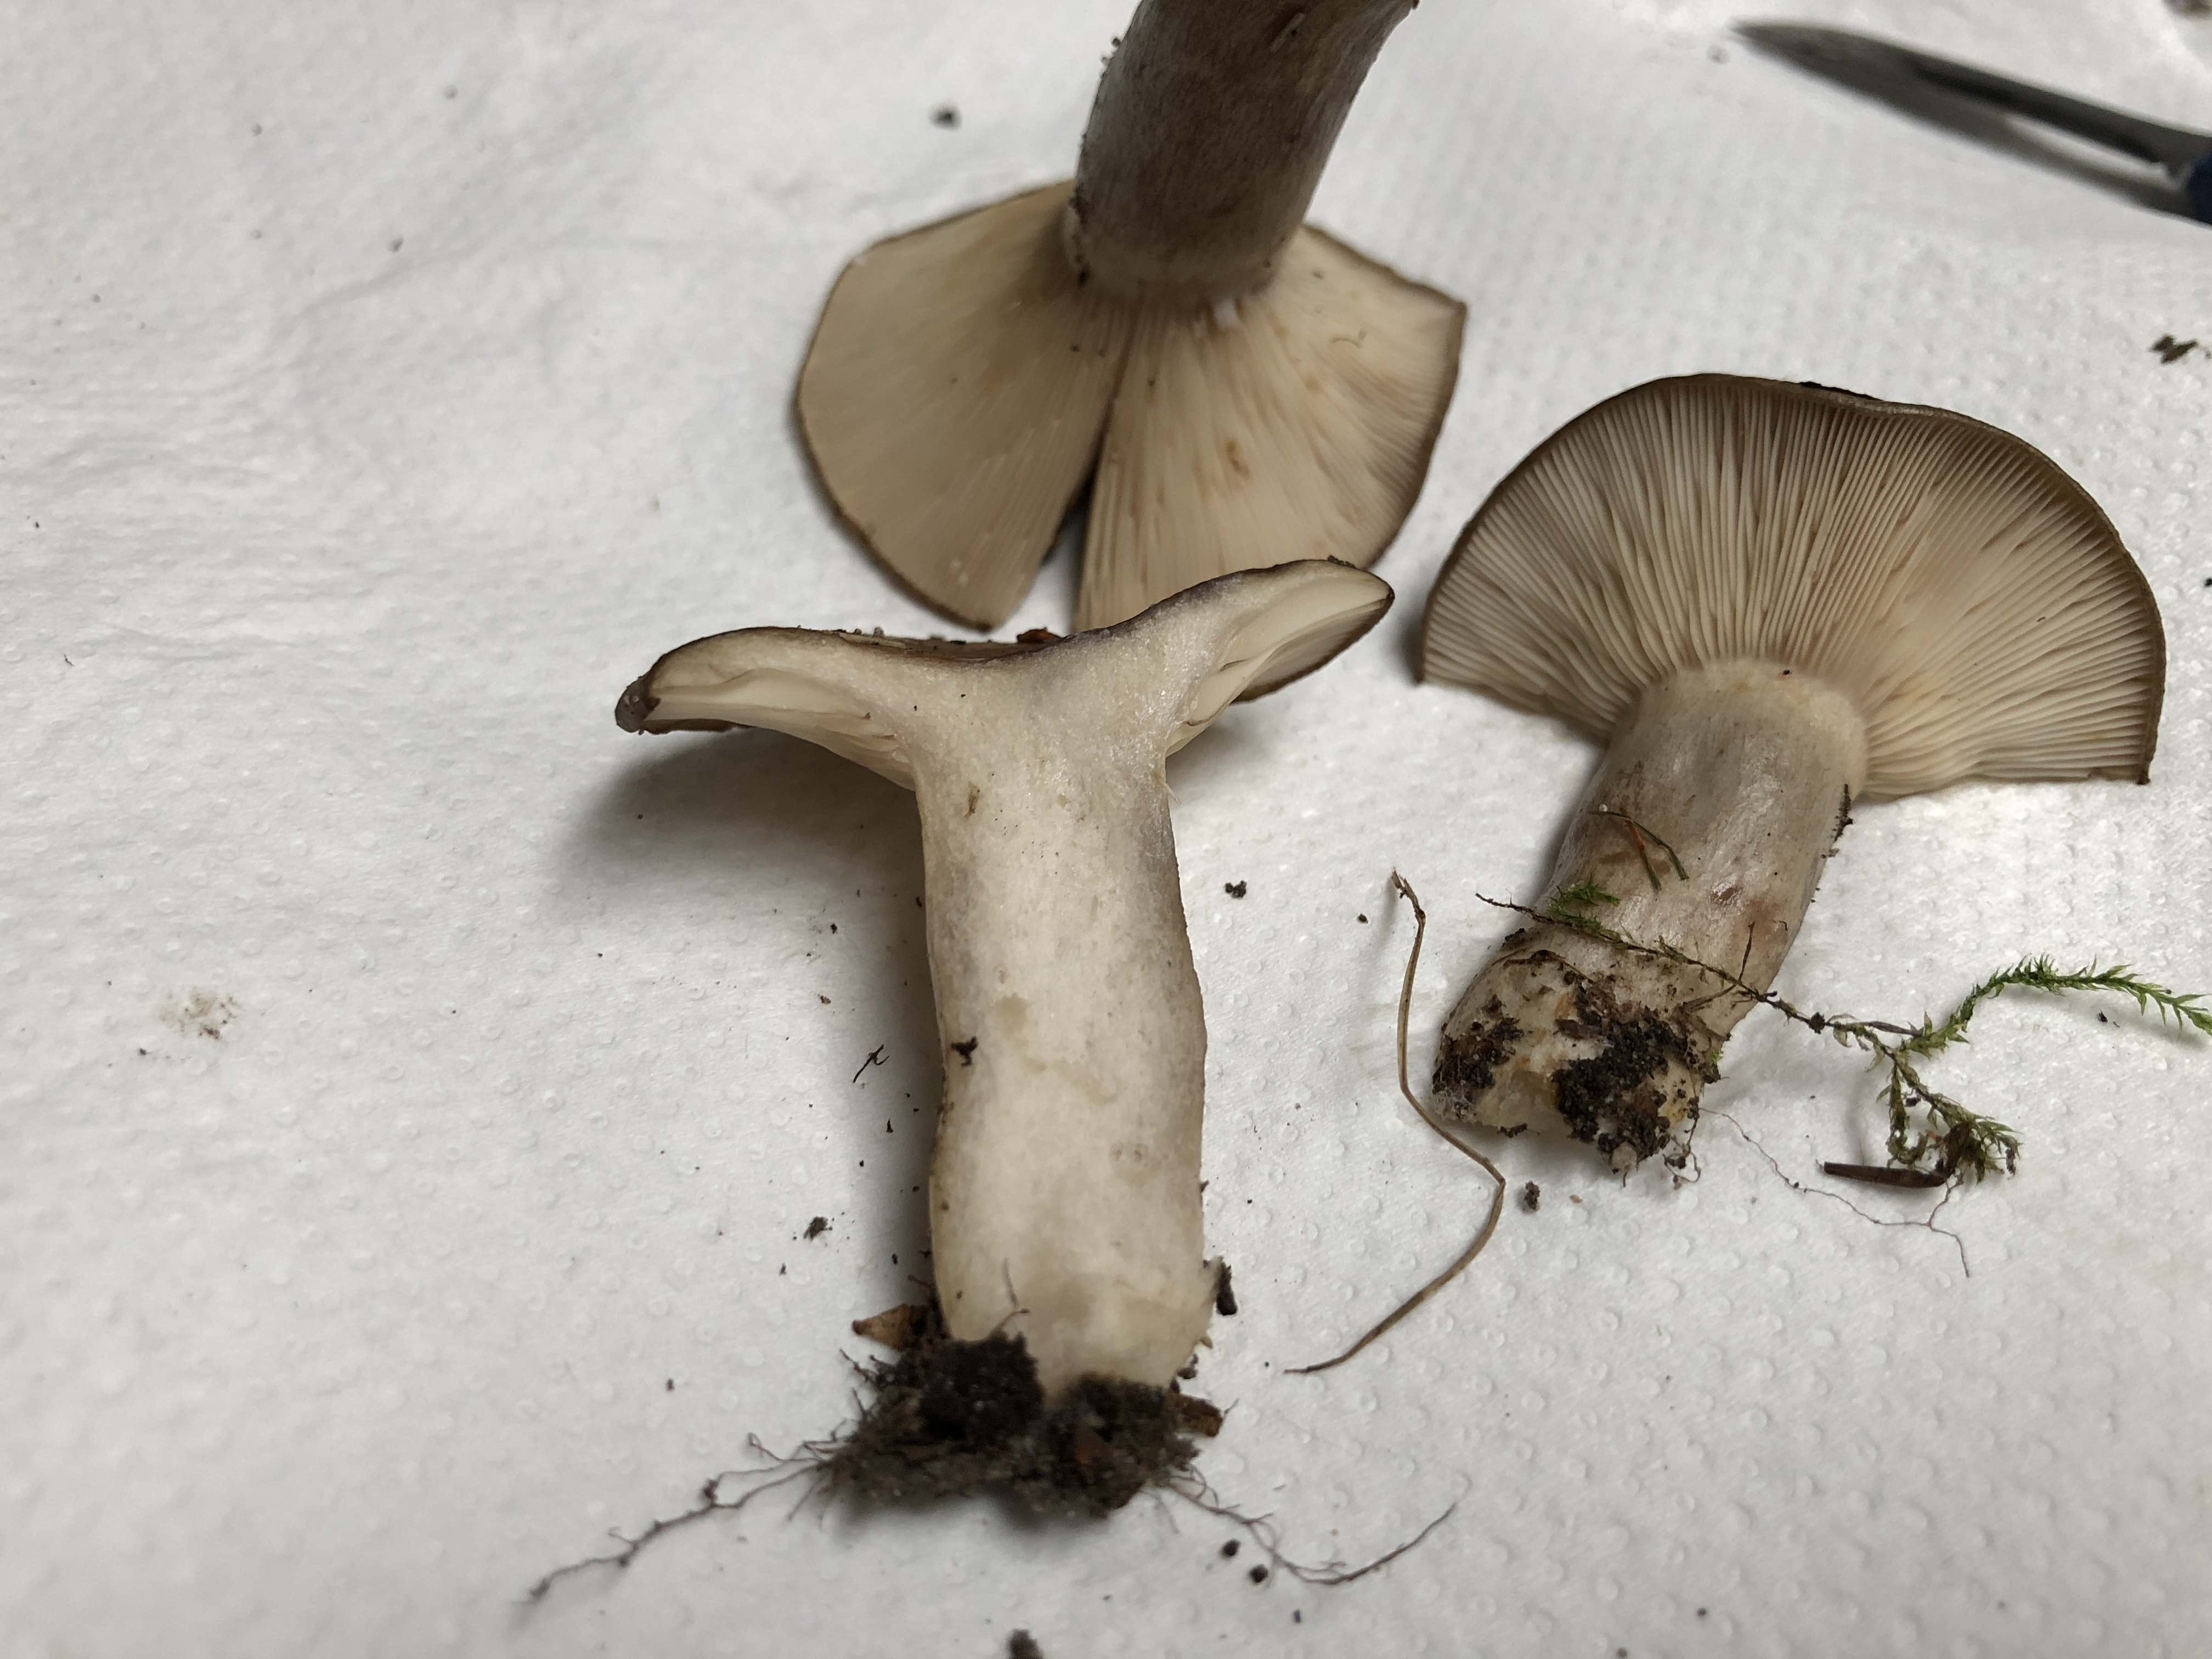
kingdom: Fungi
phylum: Basidiomycota
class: Agaricomycetes
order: Russulales
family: Russulaceae
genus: Lactarius
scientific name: Lactarius circellatus
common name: avnbøg-mælkehat
